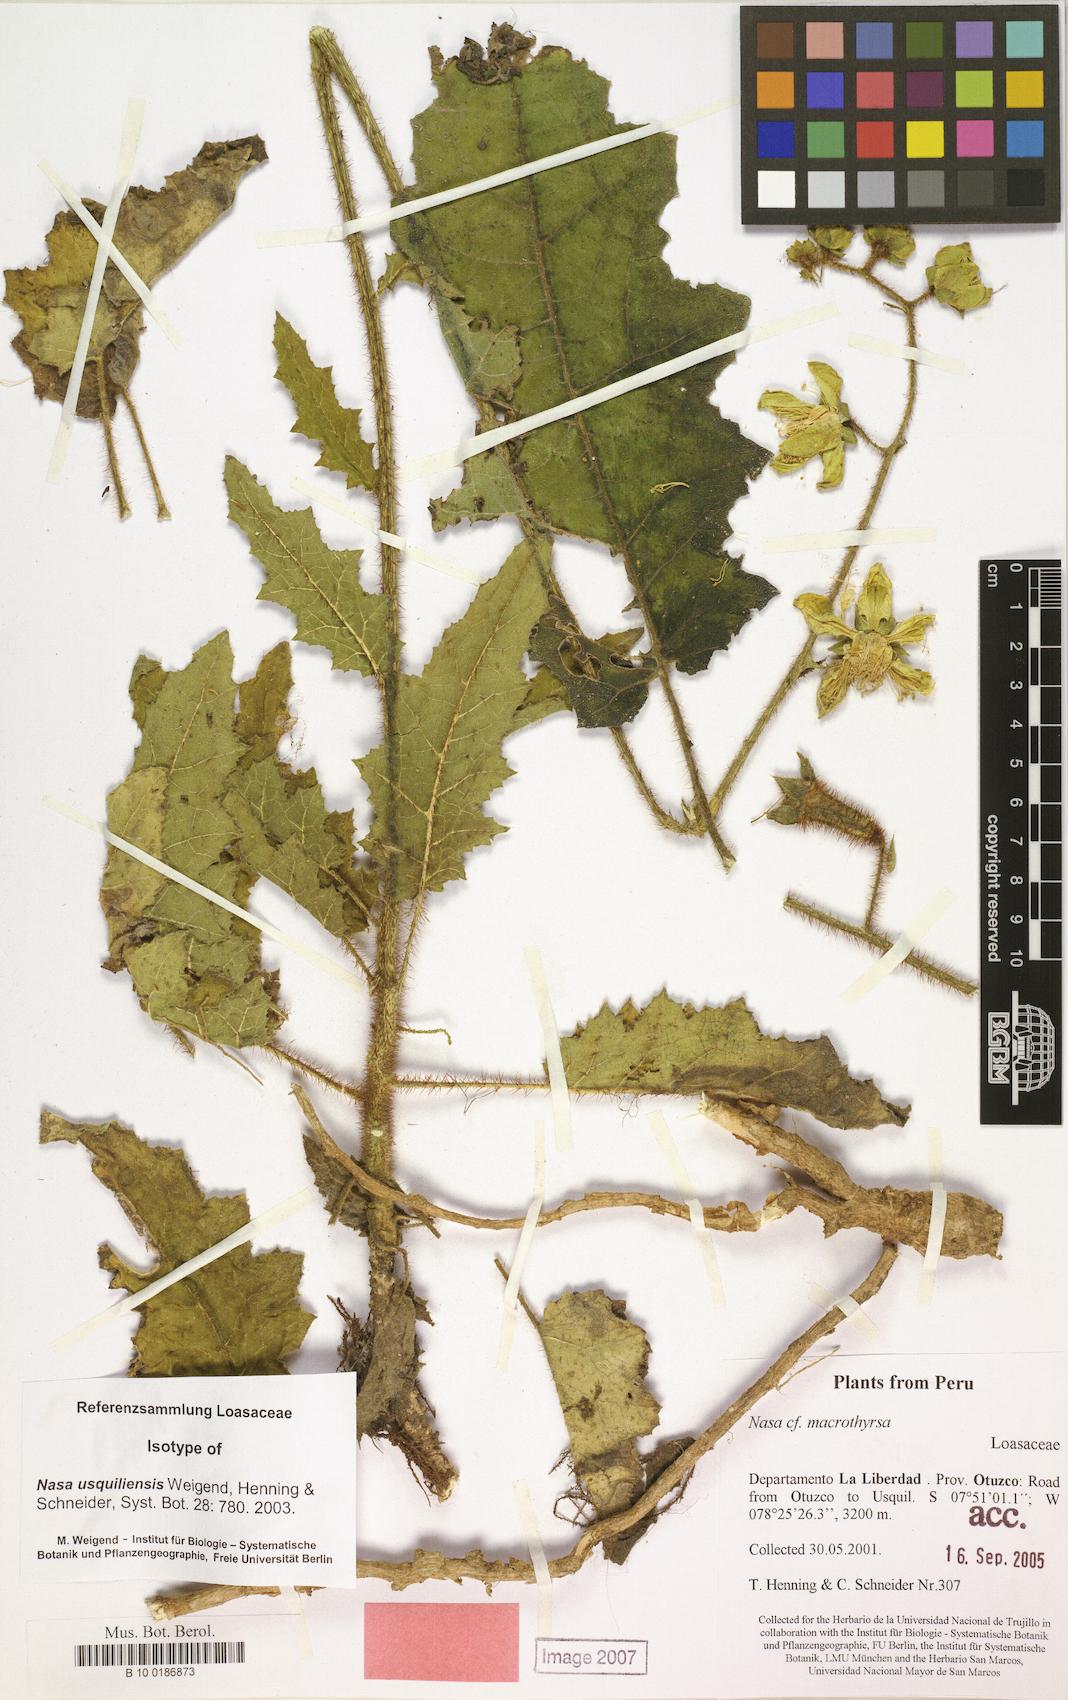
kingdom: Plantae
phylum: Tracheophyta
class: Magnoliopsida
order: Cornales
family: Loasaceae
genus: Nasa
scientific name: Nasa usquiliensis
